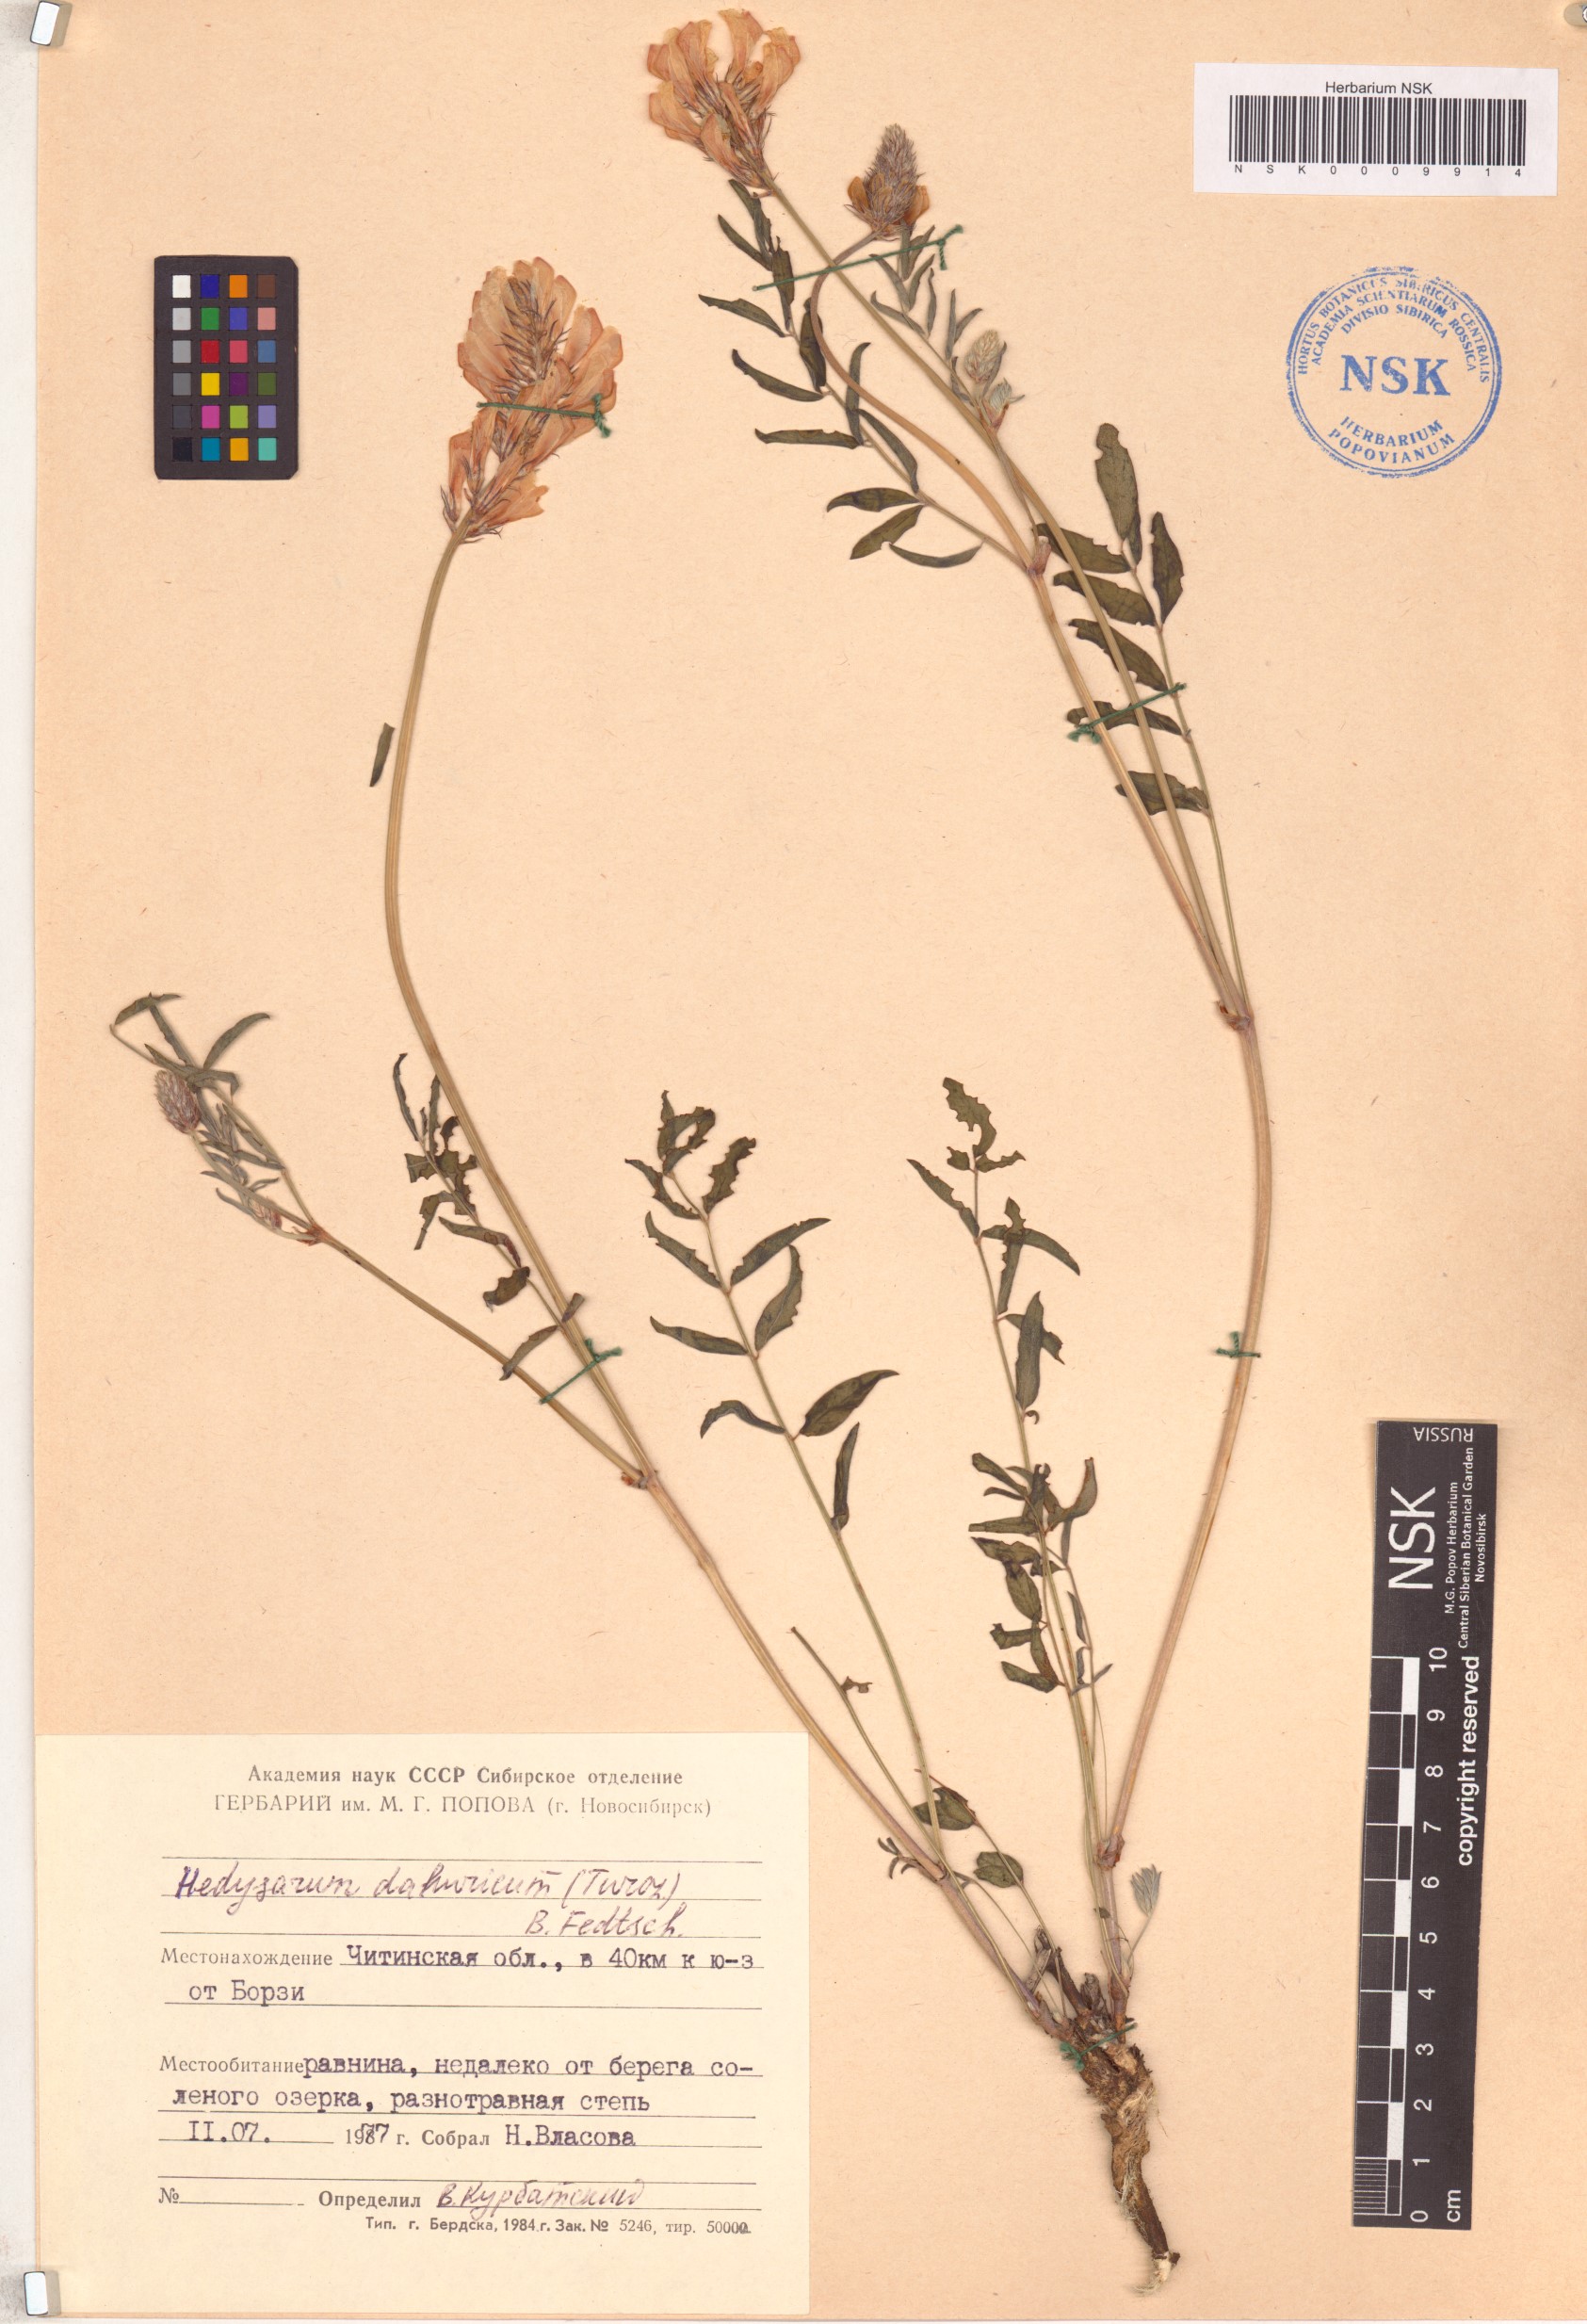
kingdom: Plantae
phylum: Tracheophyta
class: Magnoliopsida
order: Fabales
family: Fabaceae
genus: Hedysarum
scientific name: Hedysarum dahuricum
